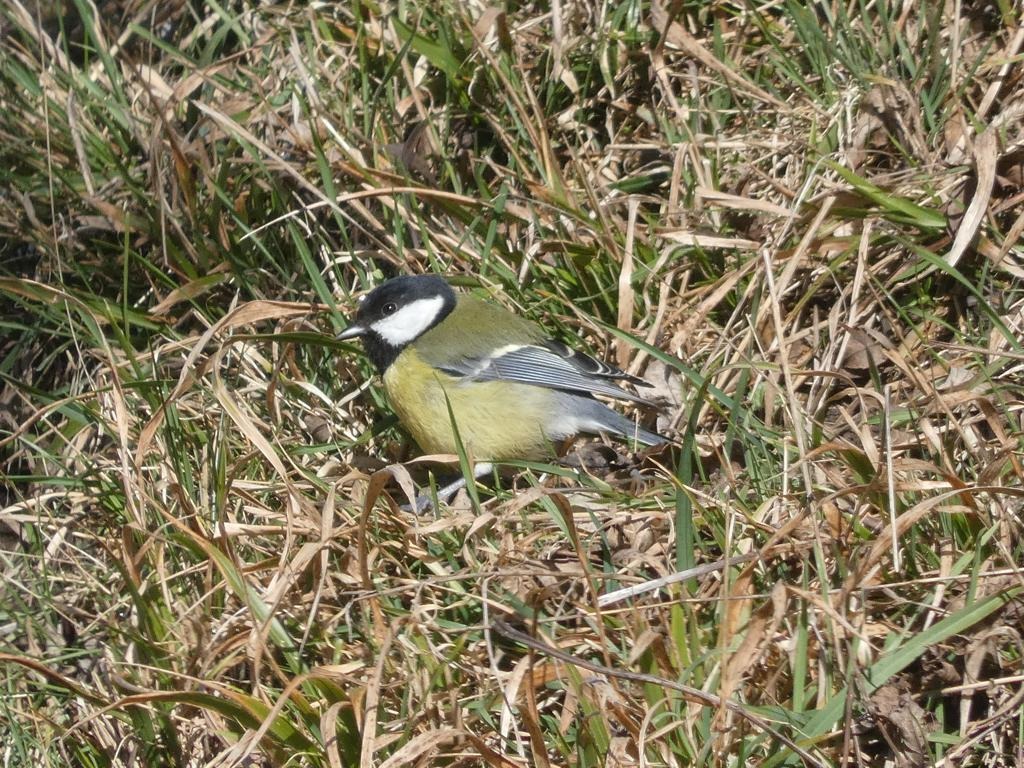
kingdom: Animalia
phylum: Chordata
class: Aves
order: Passeriformes
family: Paridae
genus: Parus
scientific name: Parus major
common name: Musvit
